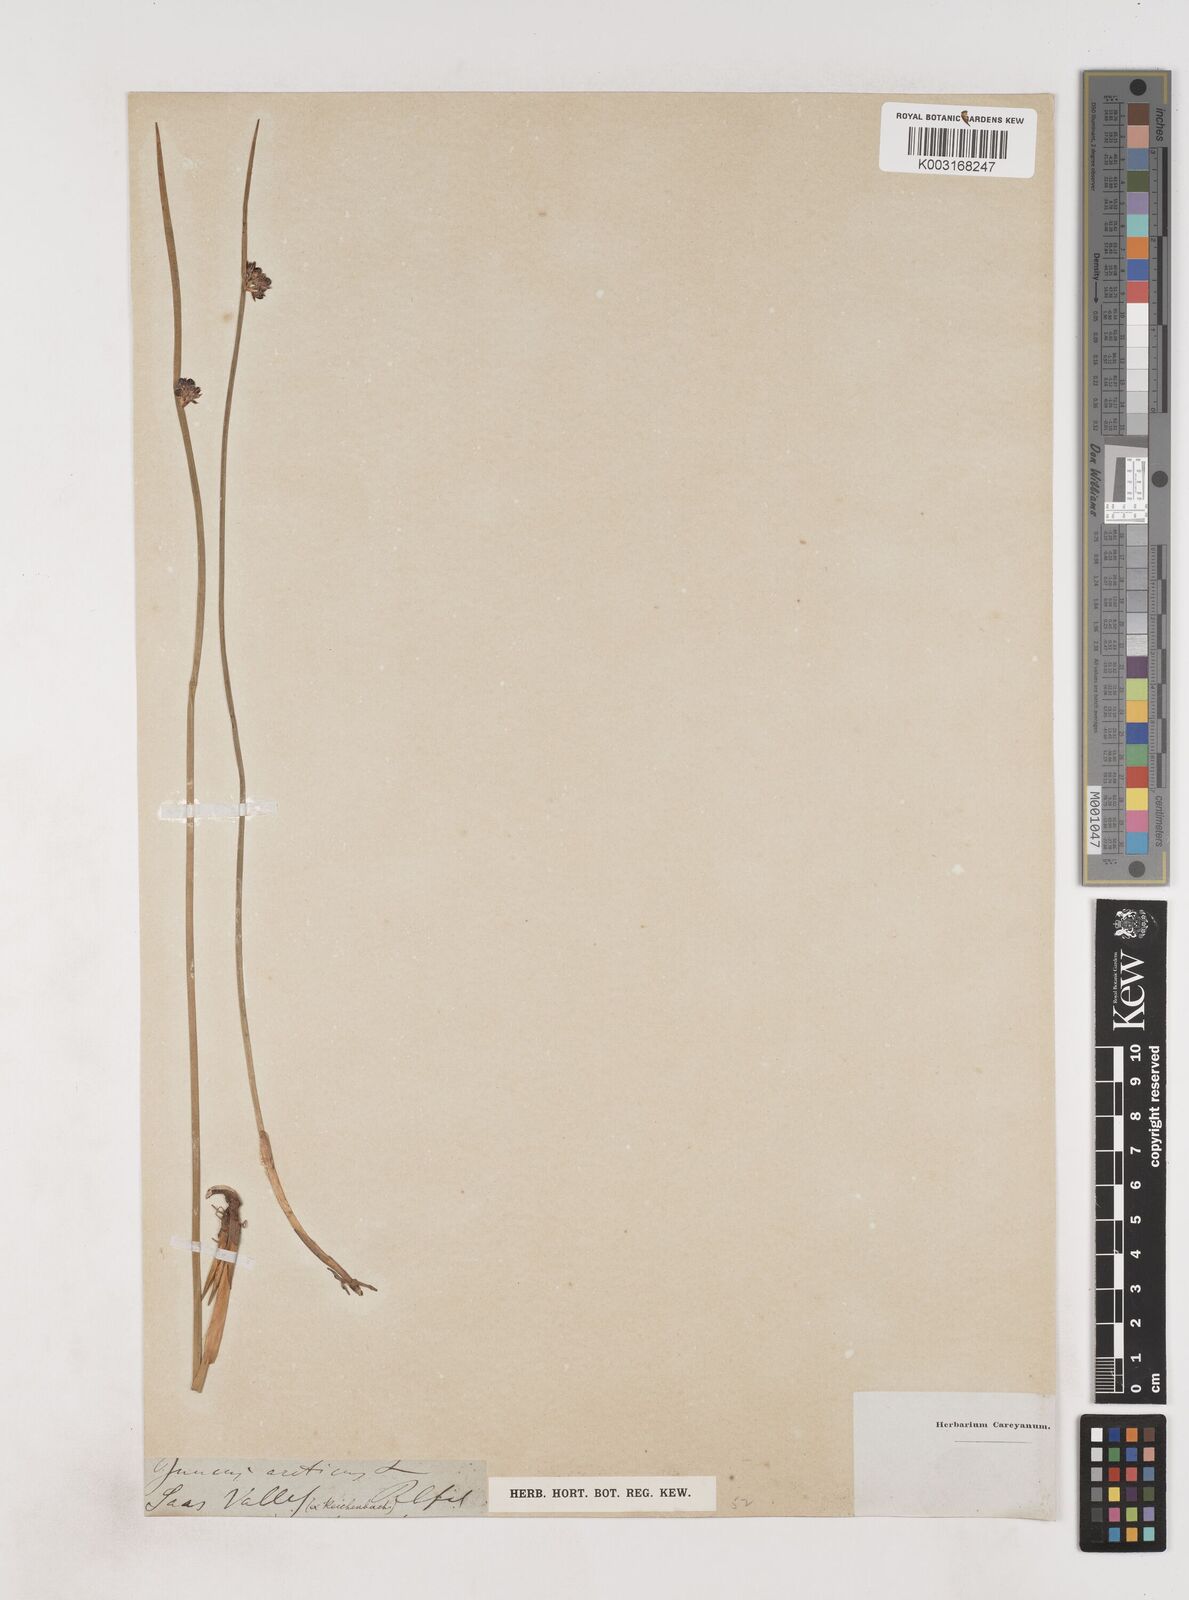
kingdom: Plantae
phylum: Tracheophyta
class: Liliopsida
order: Poales
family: Juncaceae
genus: Juncus
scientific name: Juncus arcticus
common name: Arctic rush
